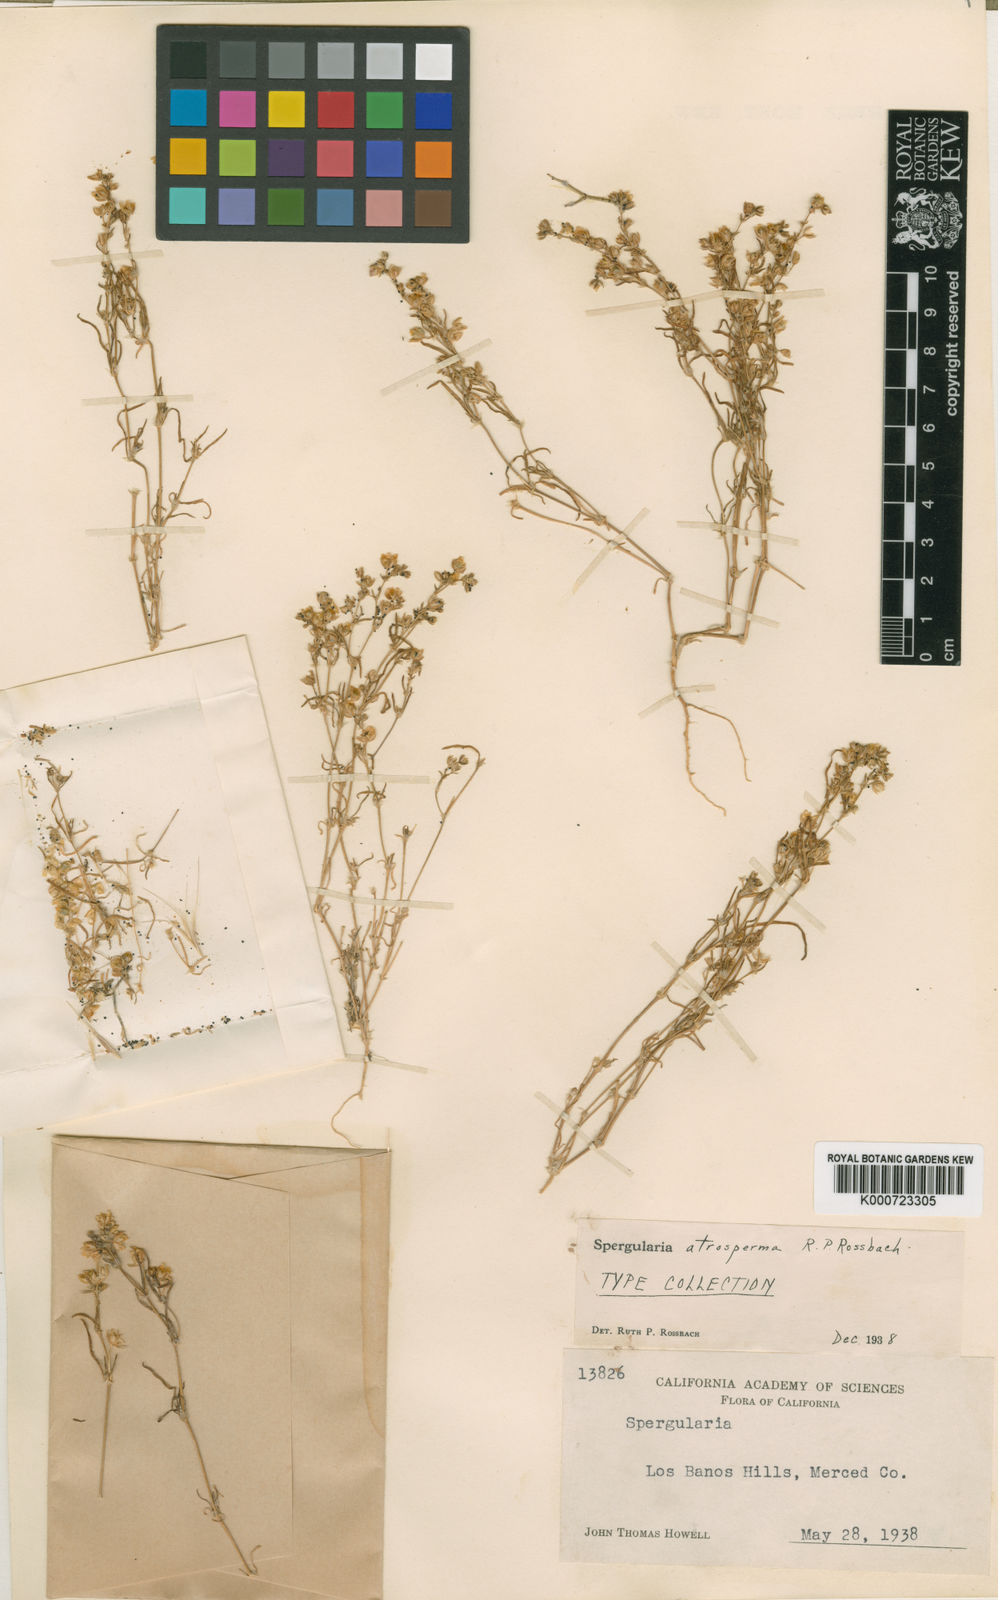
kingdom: Plantae
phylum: Tracheophyta
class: Magnoliopsida
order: Caryophyllales
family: Caryophyllaceae
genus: Spergularia
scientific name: Spergularia atrosperma
